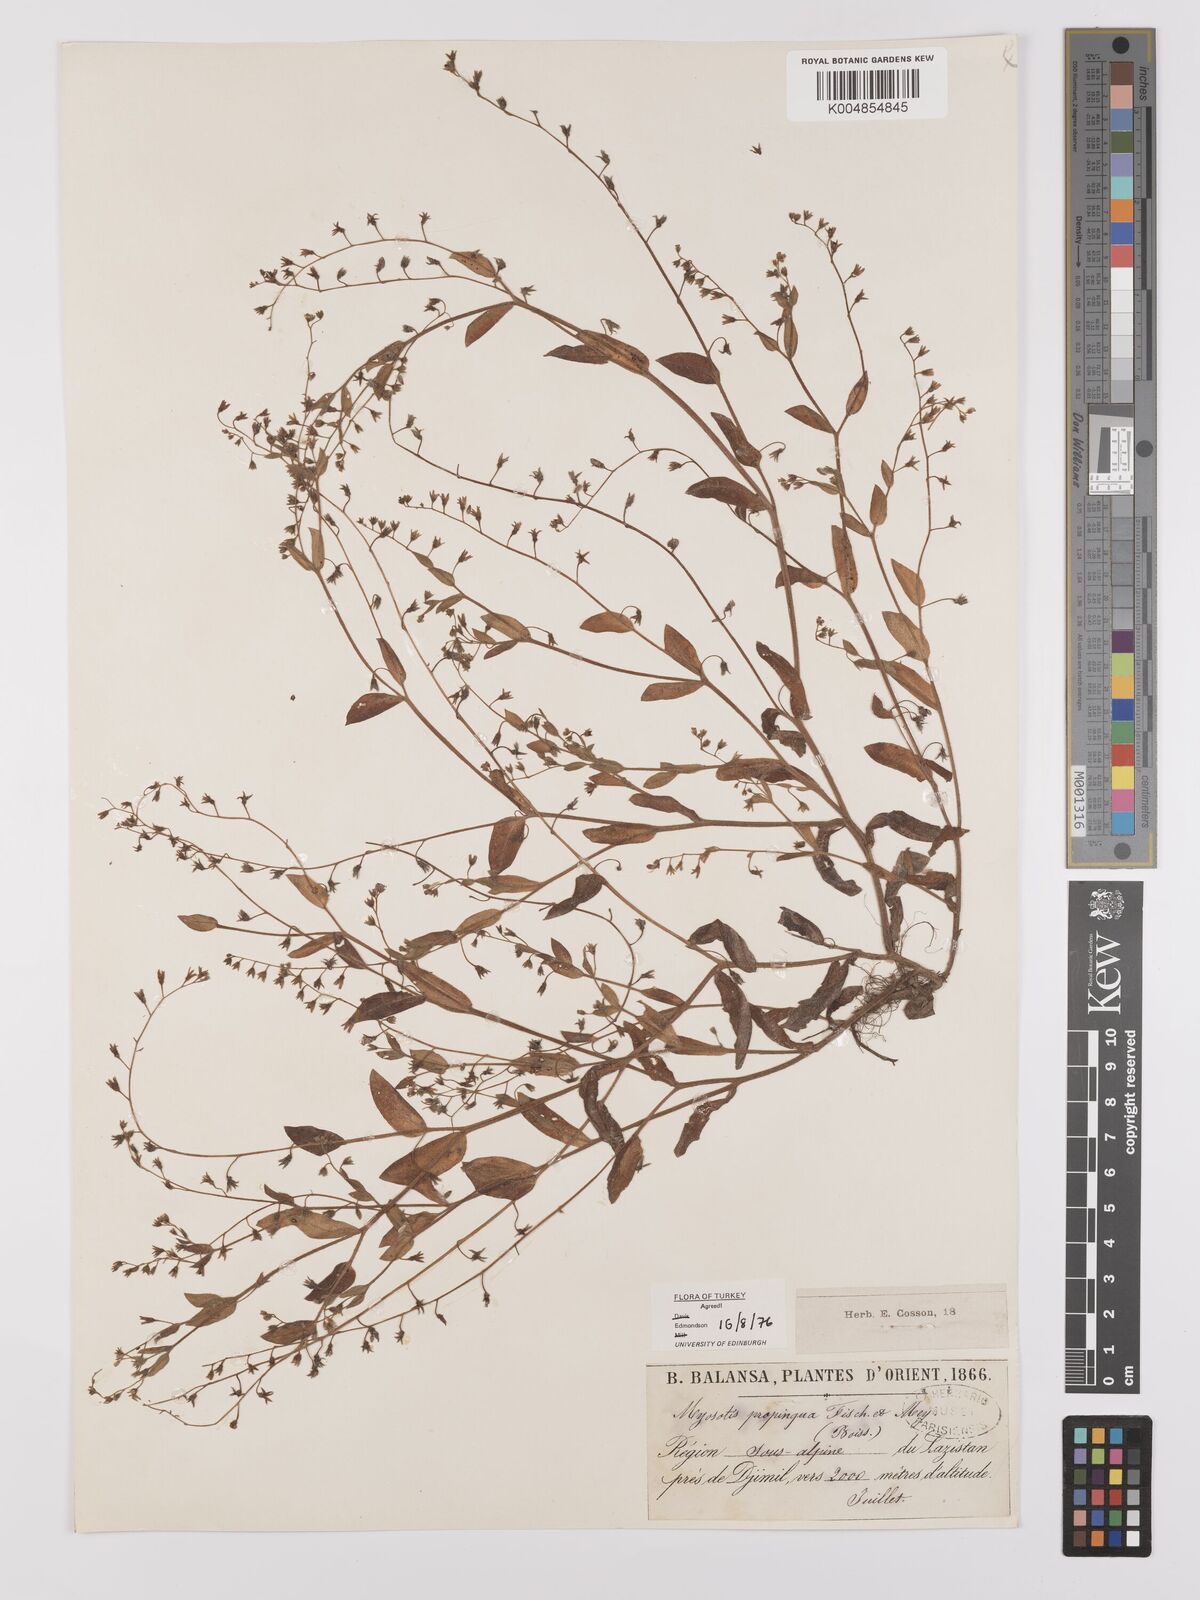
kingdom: Plantae
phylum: Tracheophyta
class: Magnoliopsida
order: Boraginales
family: Boraginaceae
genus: Myosotis
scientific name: Myosotis propinqua
